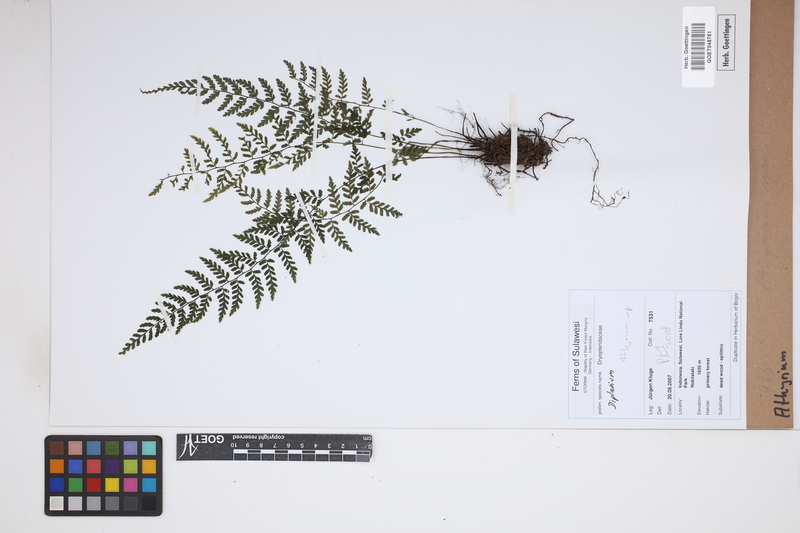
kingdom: Plantae
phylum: Tracheophyta
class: Polypodiopsida
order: Polypodiales
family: Athyriaceae
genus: Athyrium
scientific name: Athyrium
